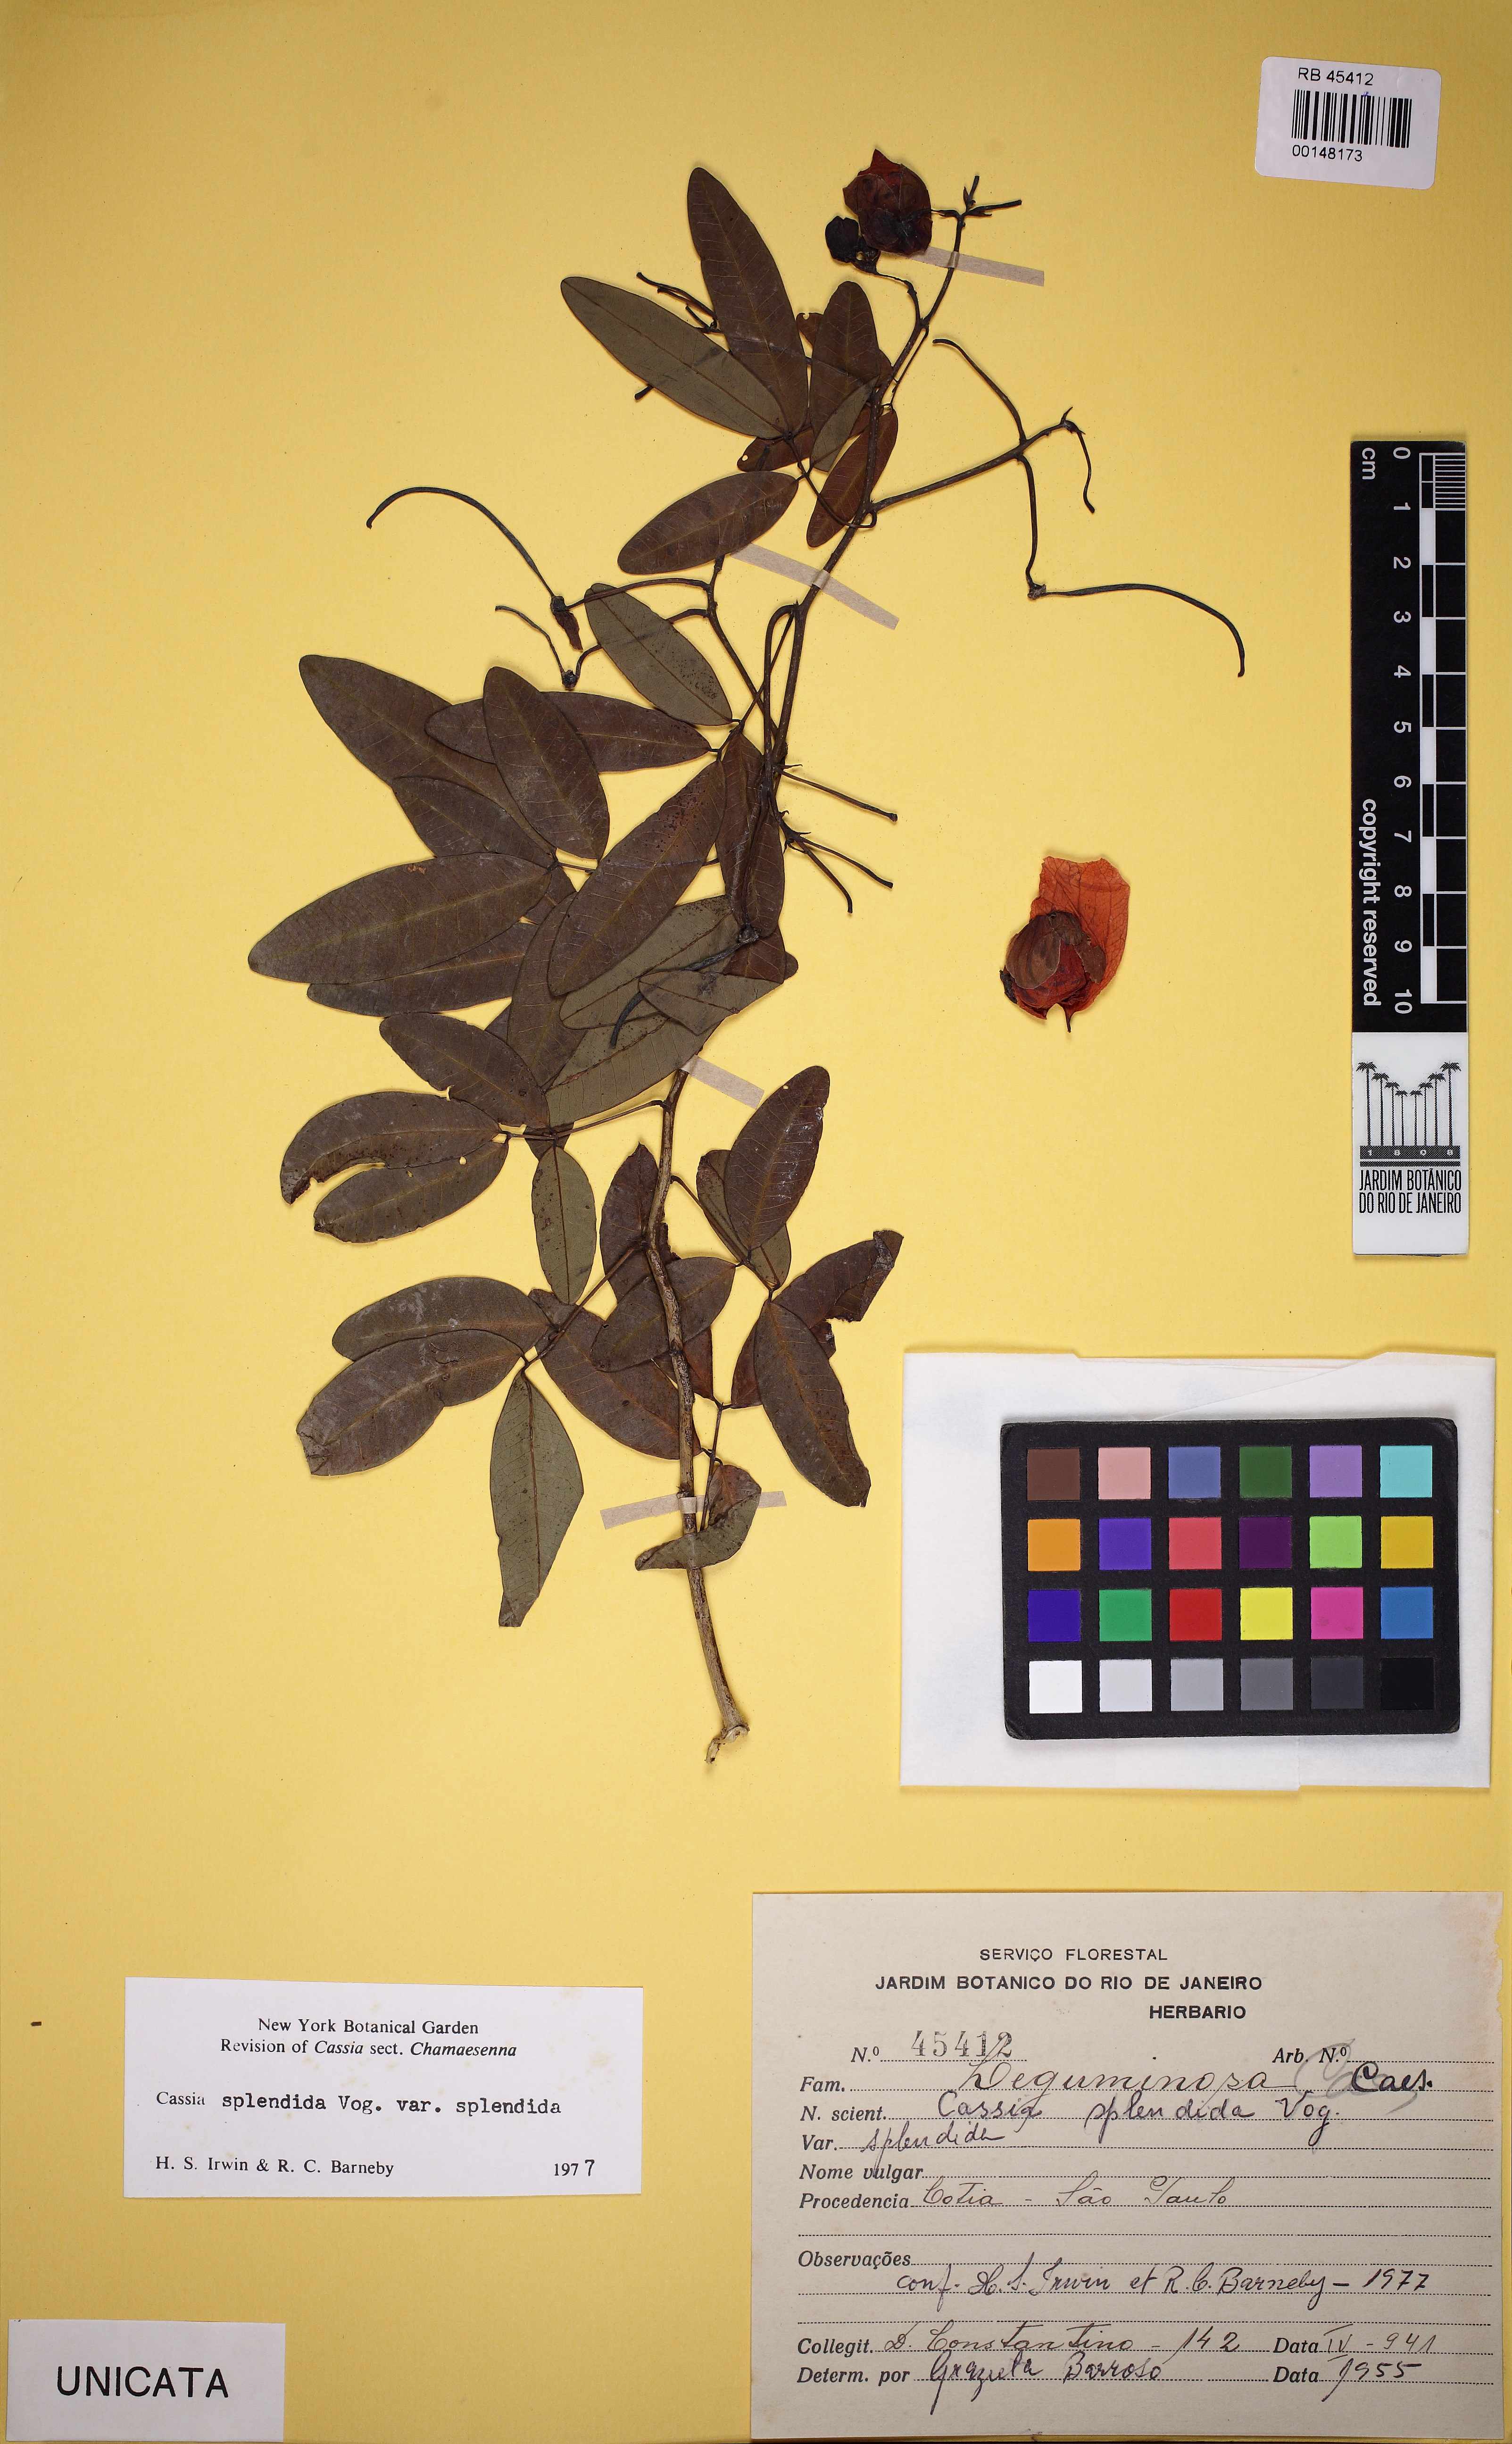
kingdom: Plantae
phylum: Tracheophyta
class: Magnoliopsida
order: Fabales
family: Fabaceae
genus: Senna
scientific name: Senna splendida
